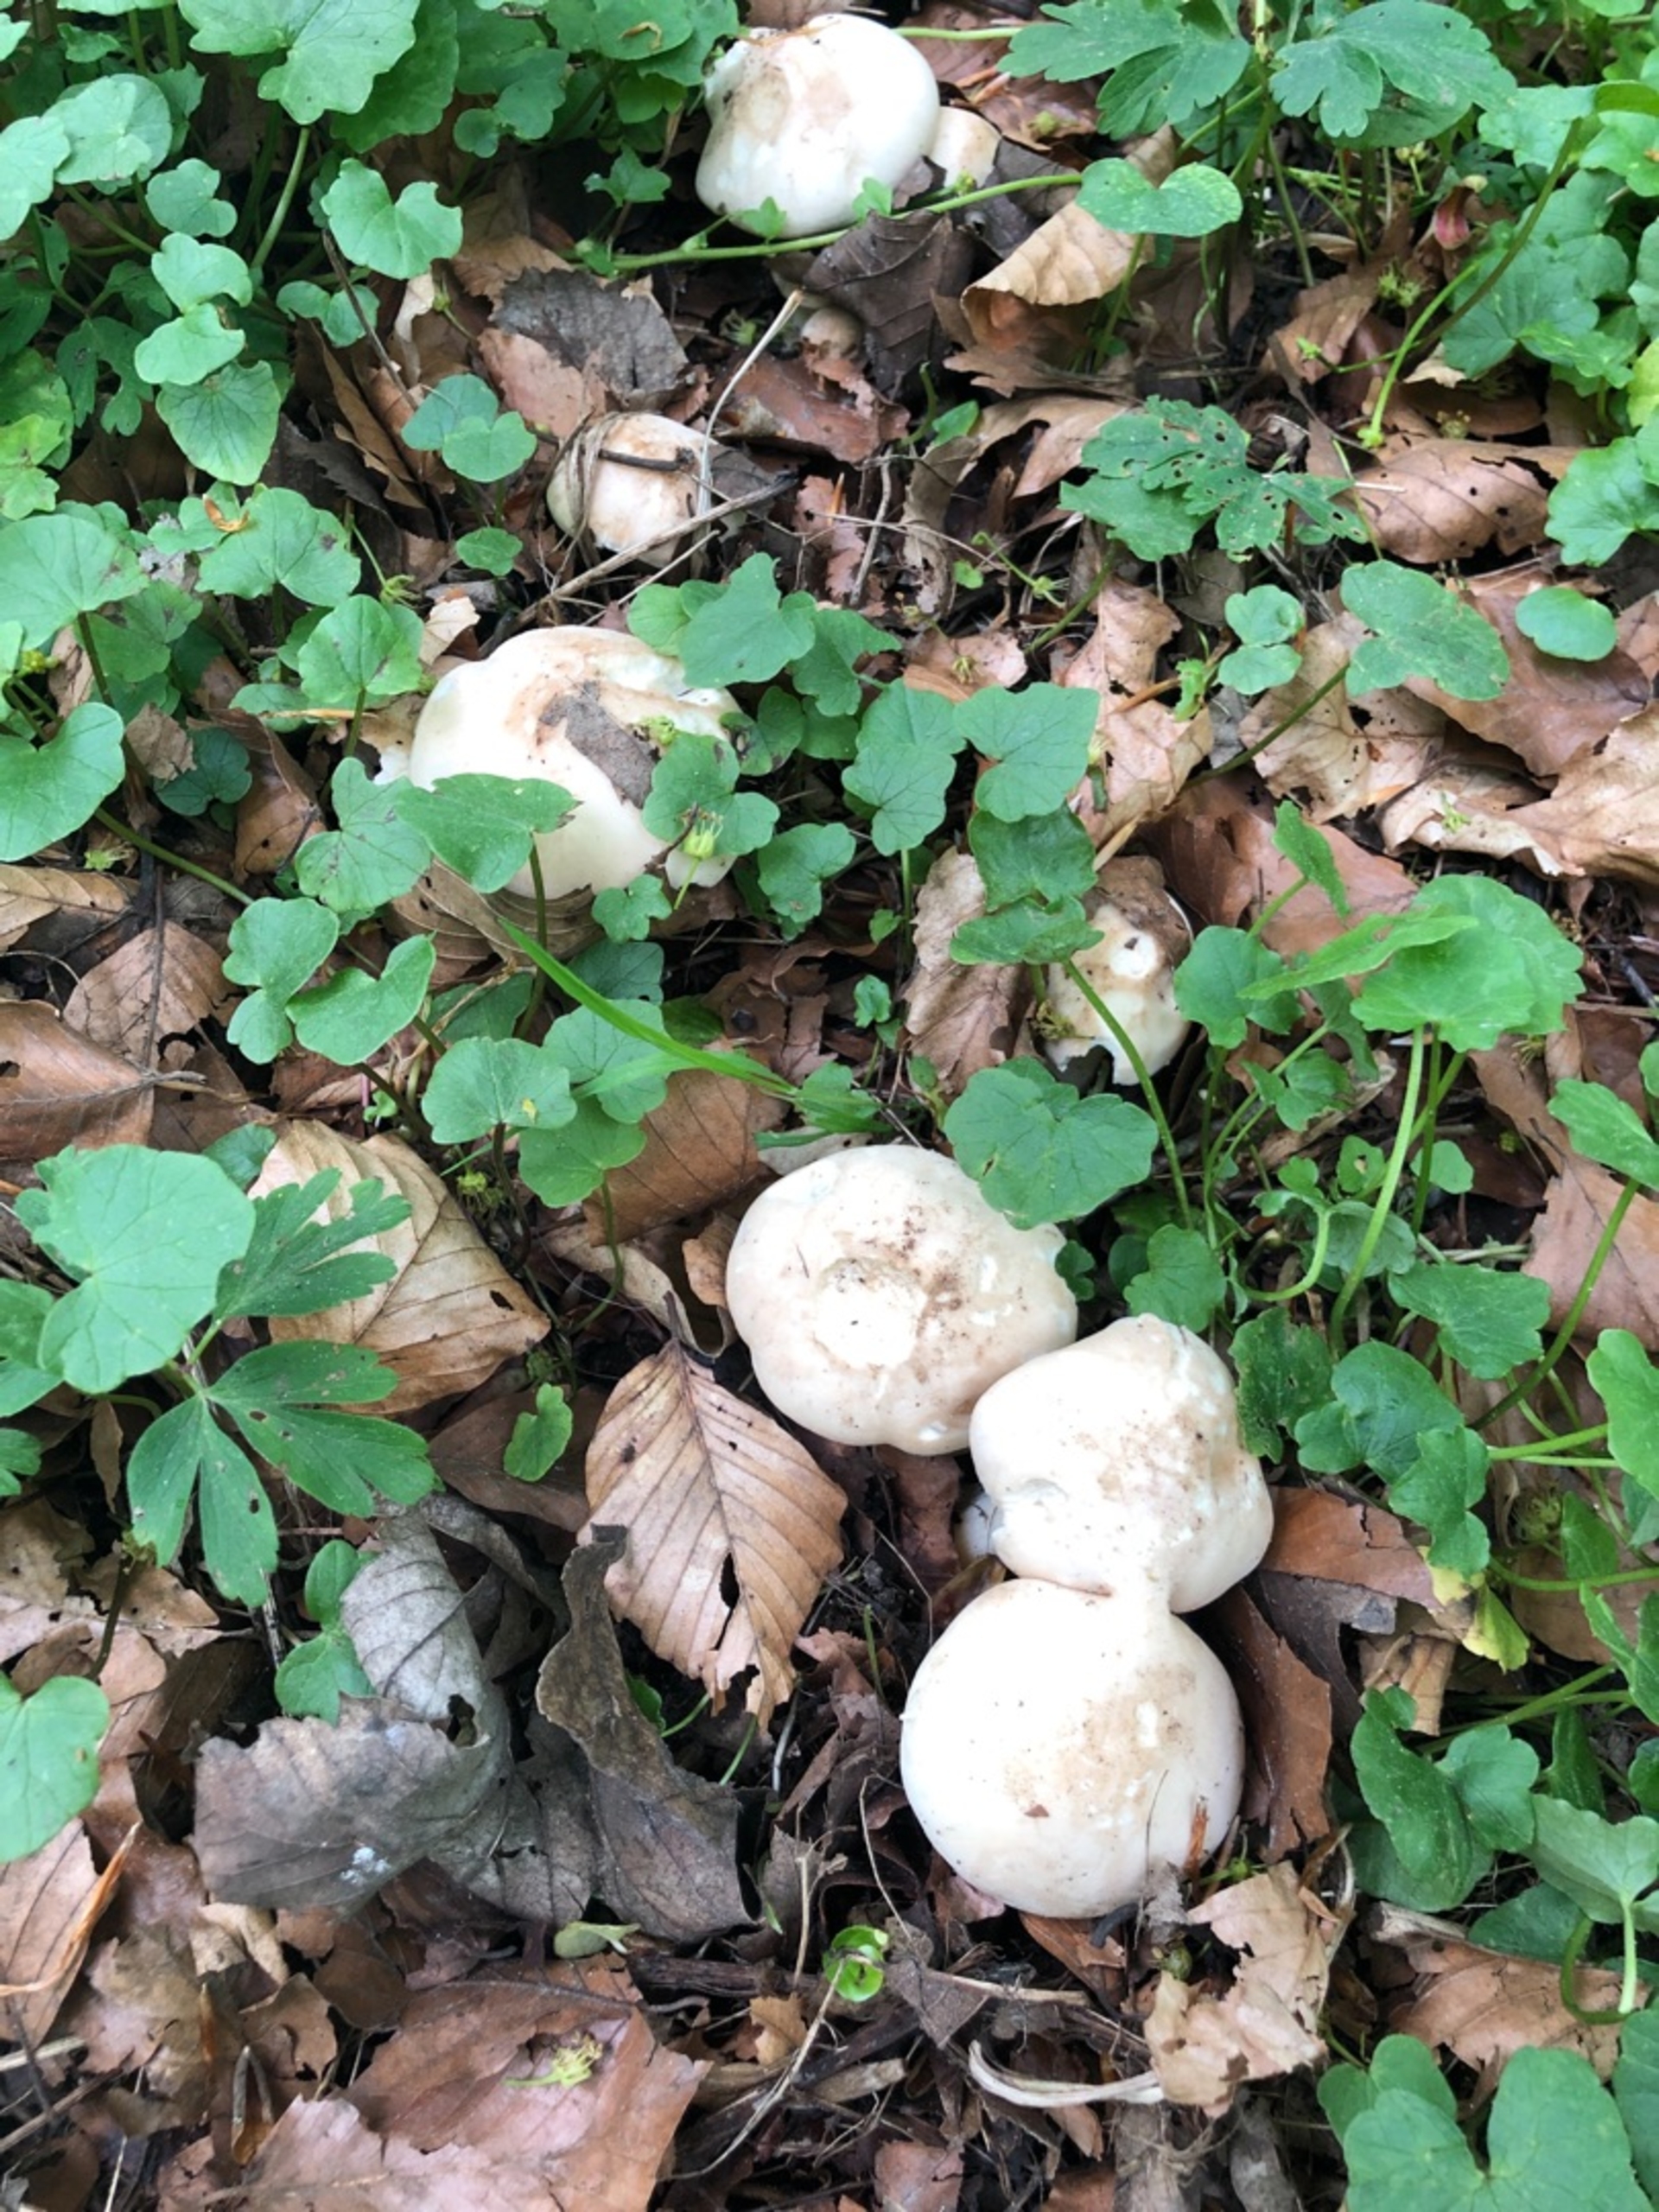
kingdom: Fungi
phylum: Basidiomycota
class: Agaricomycetes
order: Agaricales
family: Lyophyllaceae
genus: Calocybe
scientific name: Calocybe gambosa
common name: Vårmusseron
